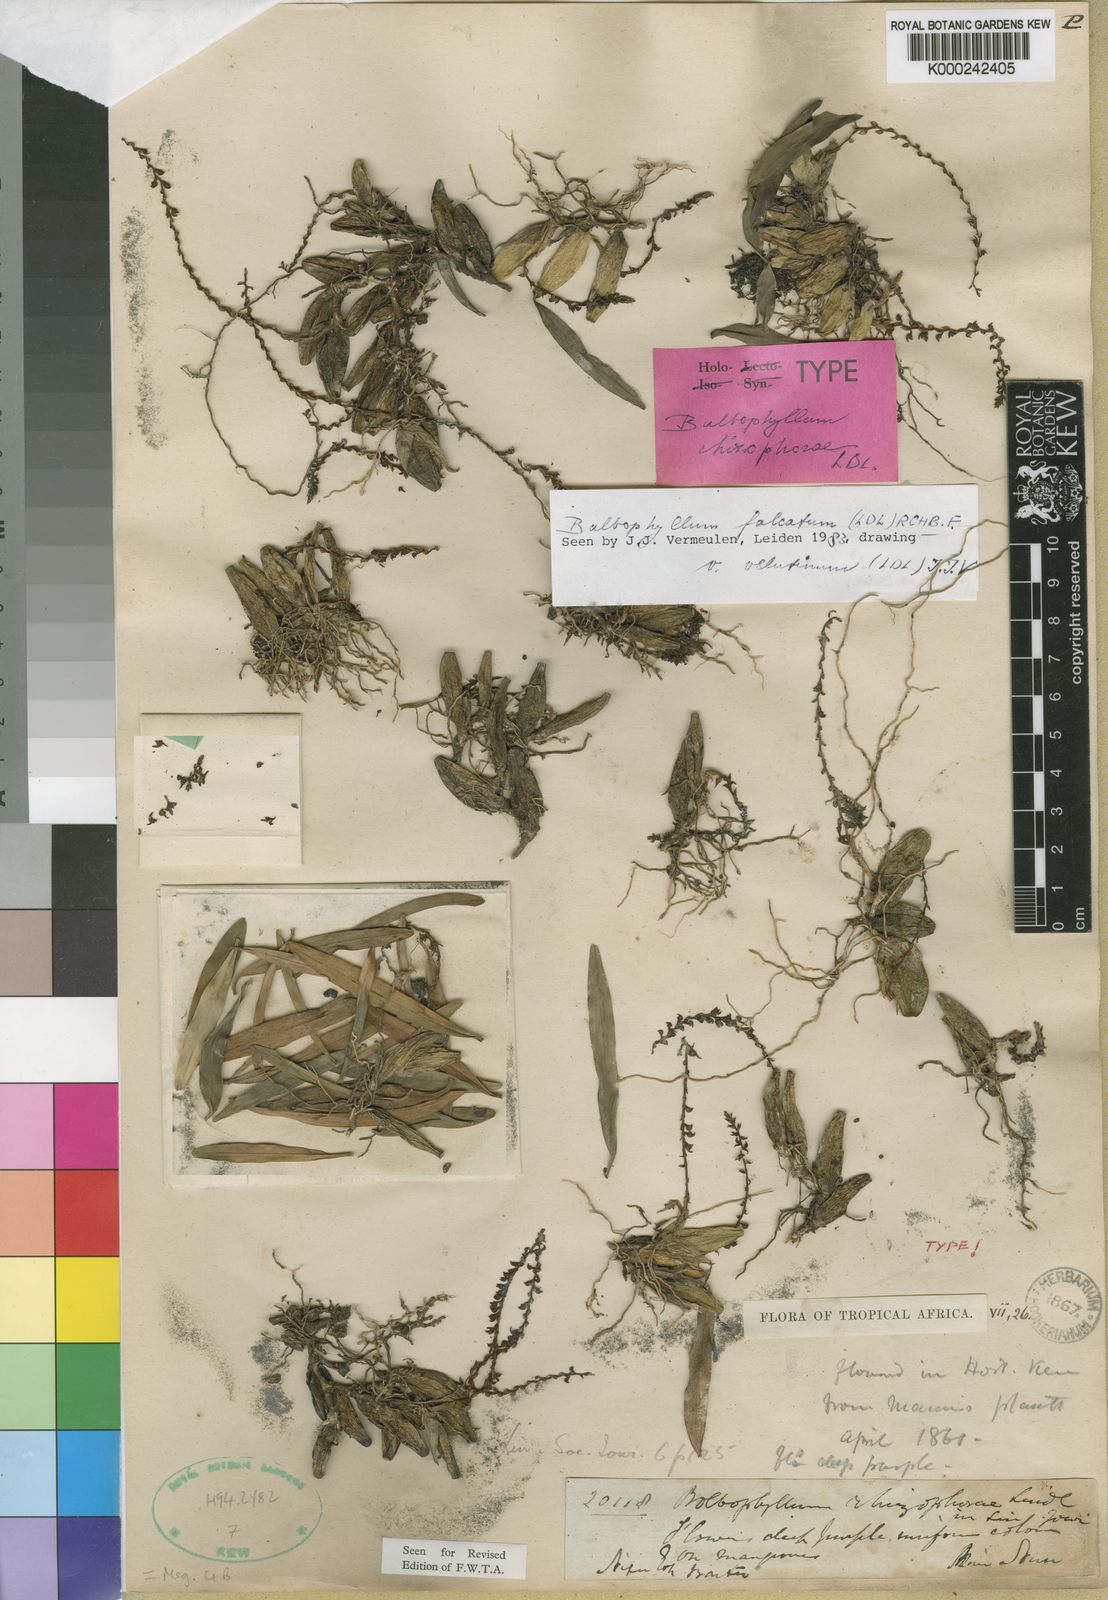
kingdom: Plantae
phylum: Tracheophyta
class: Liliopsida
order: Asparagales
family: Orchidaceae
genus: Bulbophyllum
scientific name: Bulbophyllum falcatum
